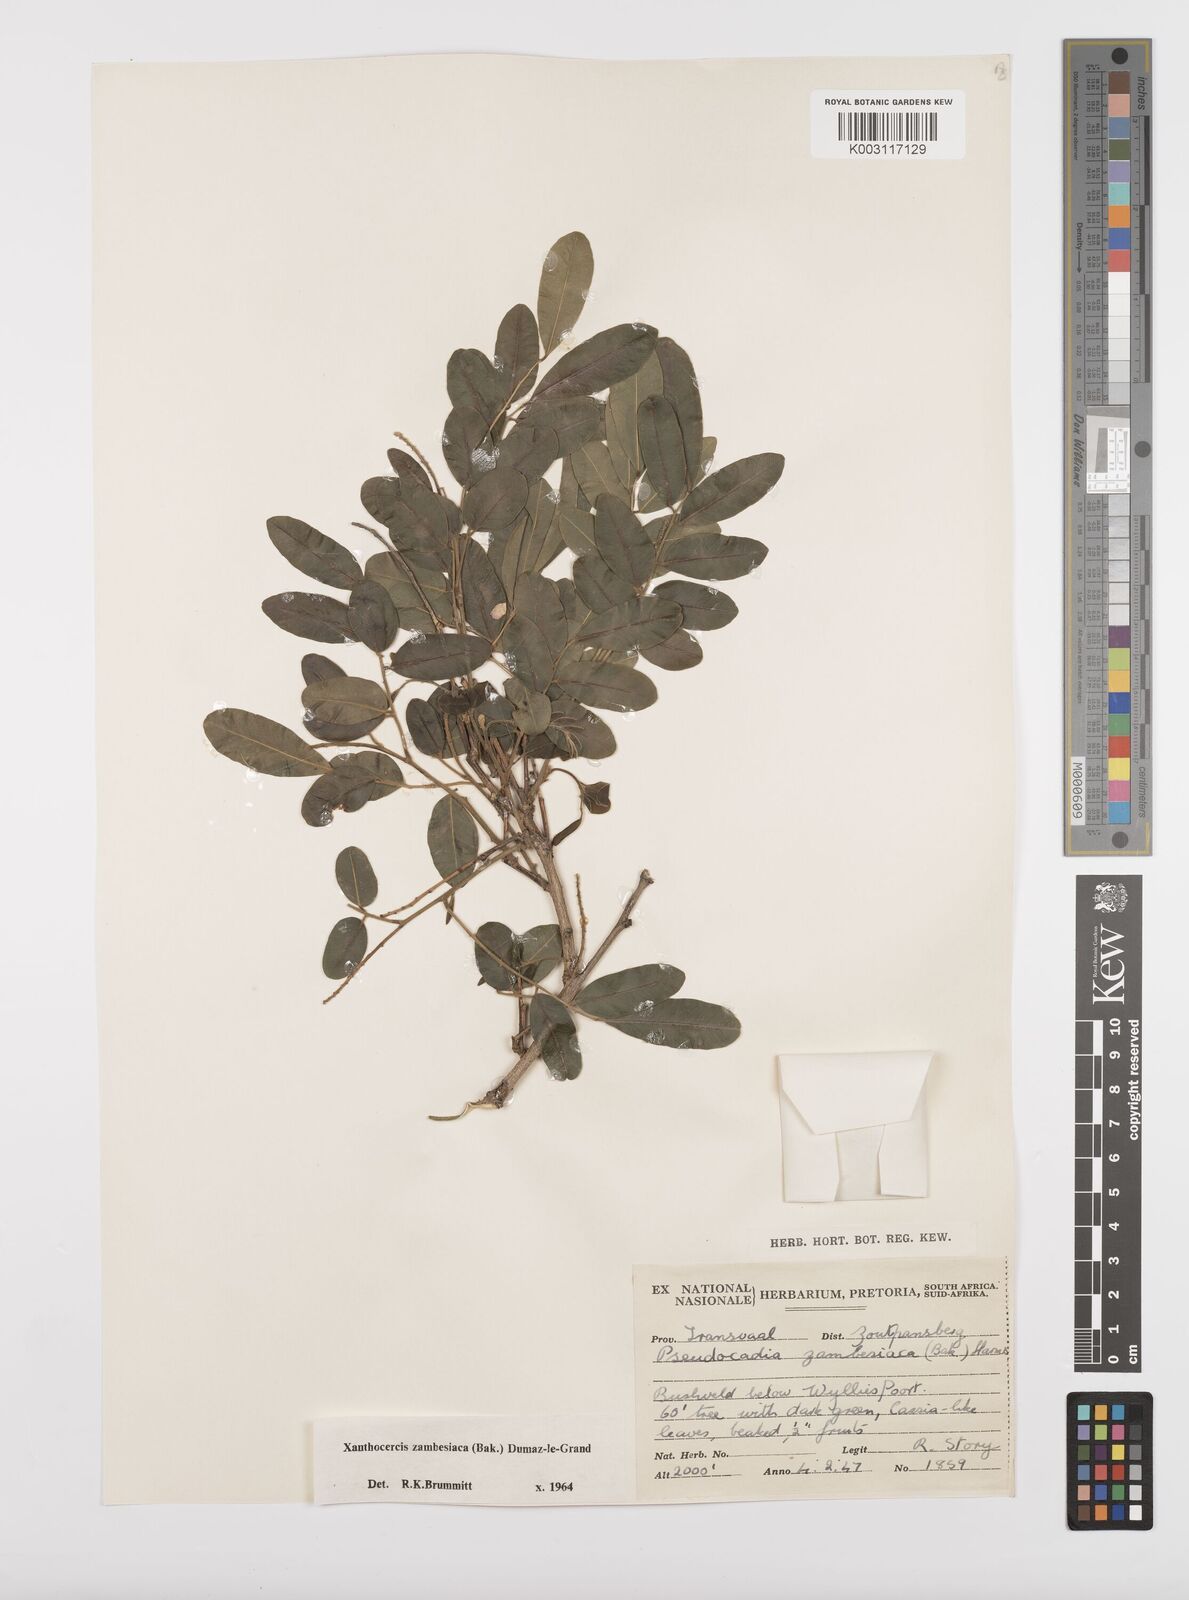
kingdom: Plantae
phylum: Tracheophyta
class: Magnoliopsida
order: Fabales
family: Fabaceae
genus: Xanthocercis
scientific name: Xanthocercis zambesiaca
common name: Nyala-tree
